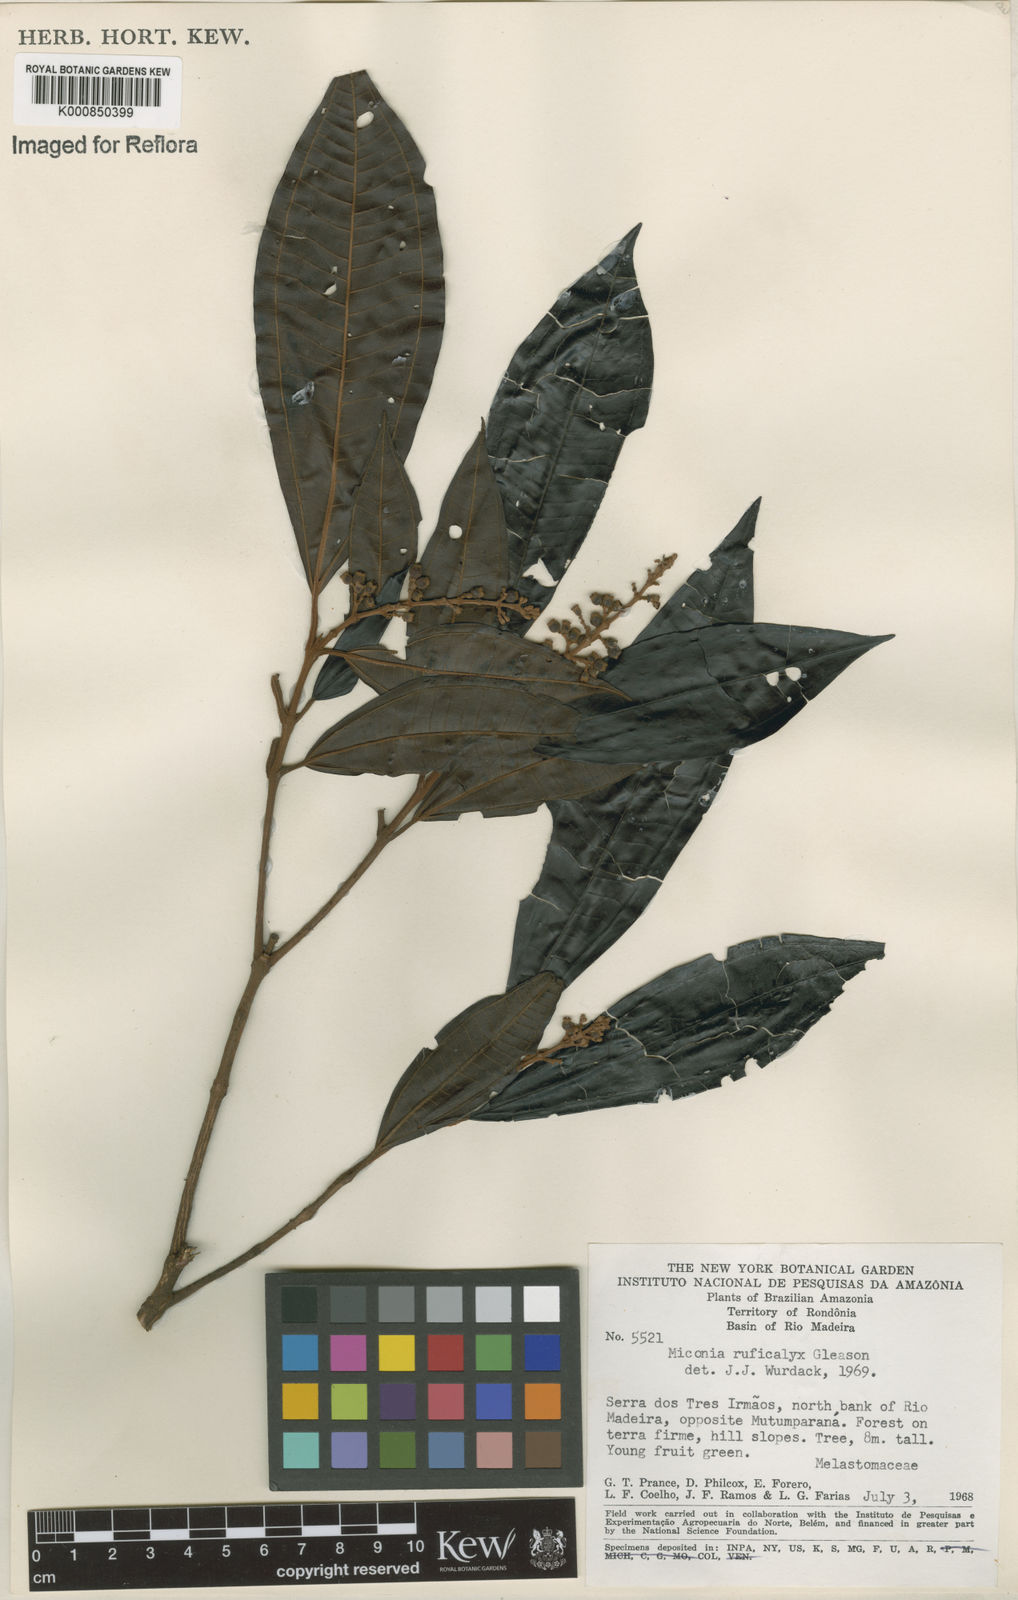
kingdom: Plantae
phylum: Tracheophyta
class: Magnoliopsida
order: Myrtales
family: Melastomataceae
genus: Miconia
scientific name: Miconia ruficalyx
